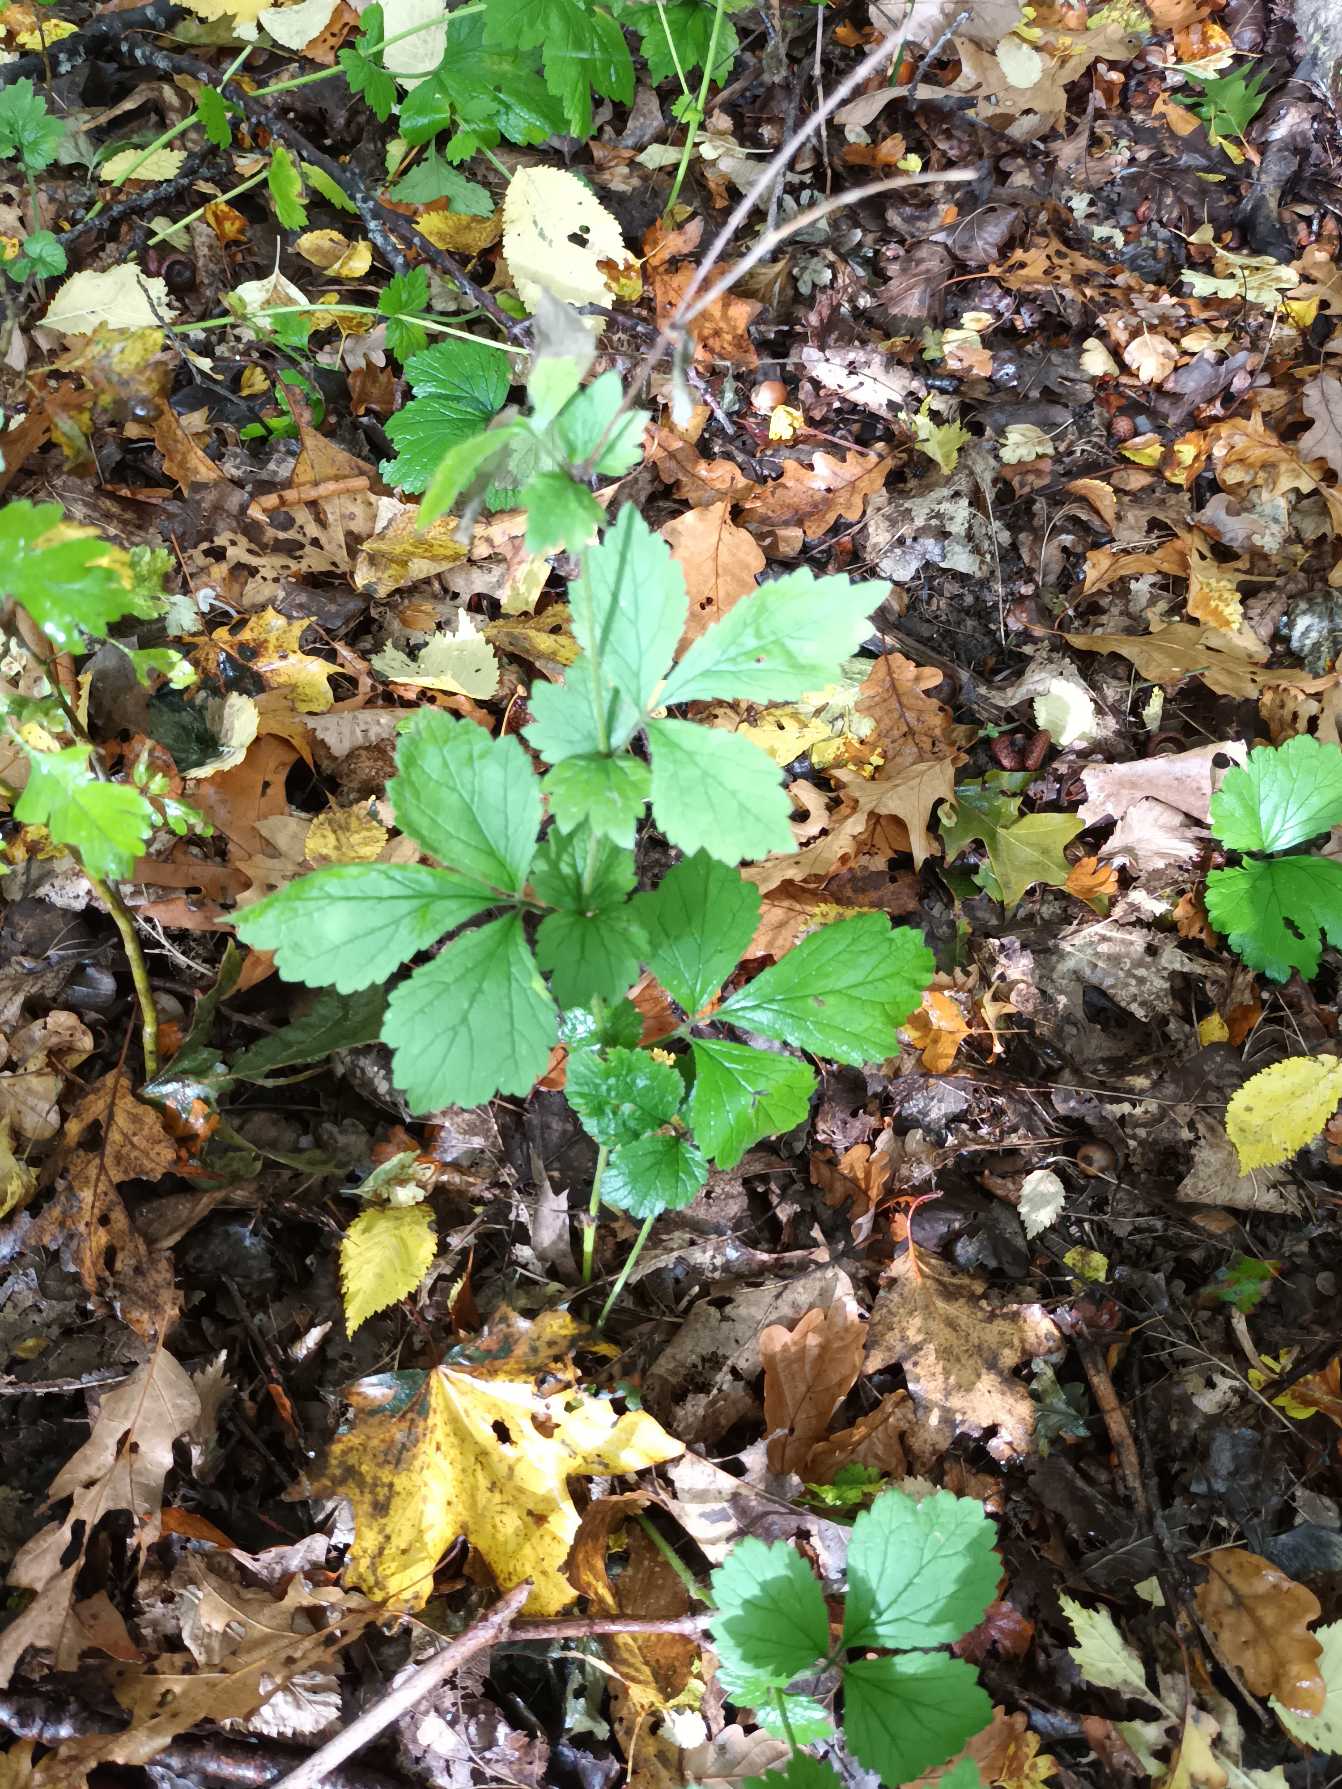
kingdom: Plantae
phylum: Tracheophyta
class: Magnoliopsida
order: Rosales
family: Rosaceae
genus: Geum
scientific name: Geum urbanum
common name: Feber-nellikerod
